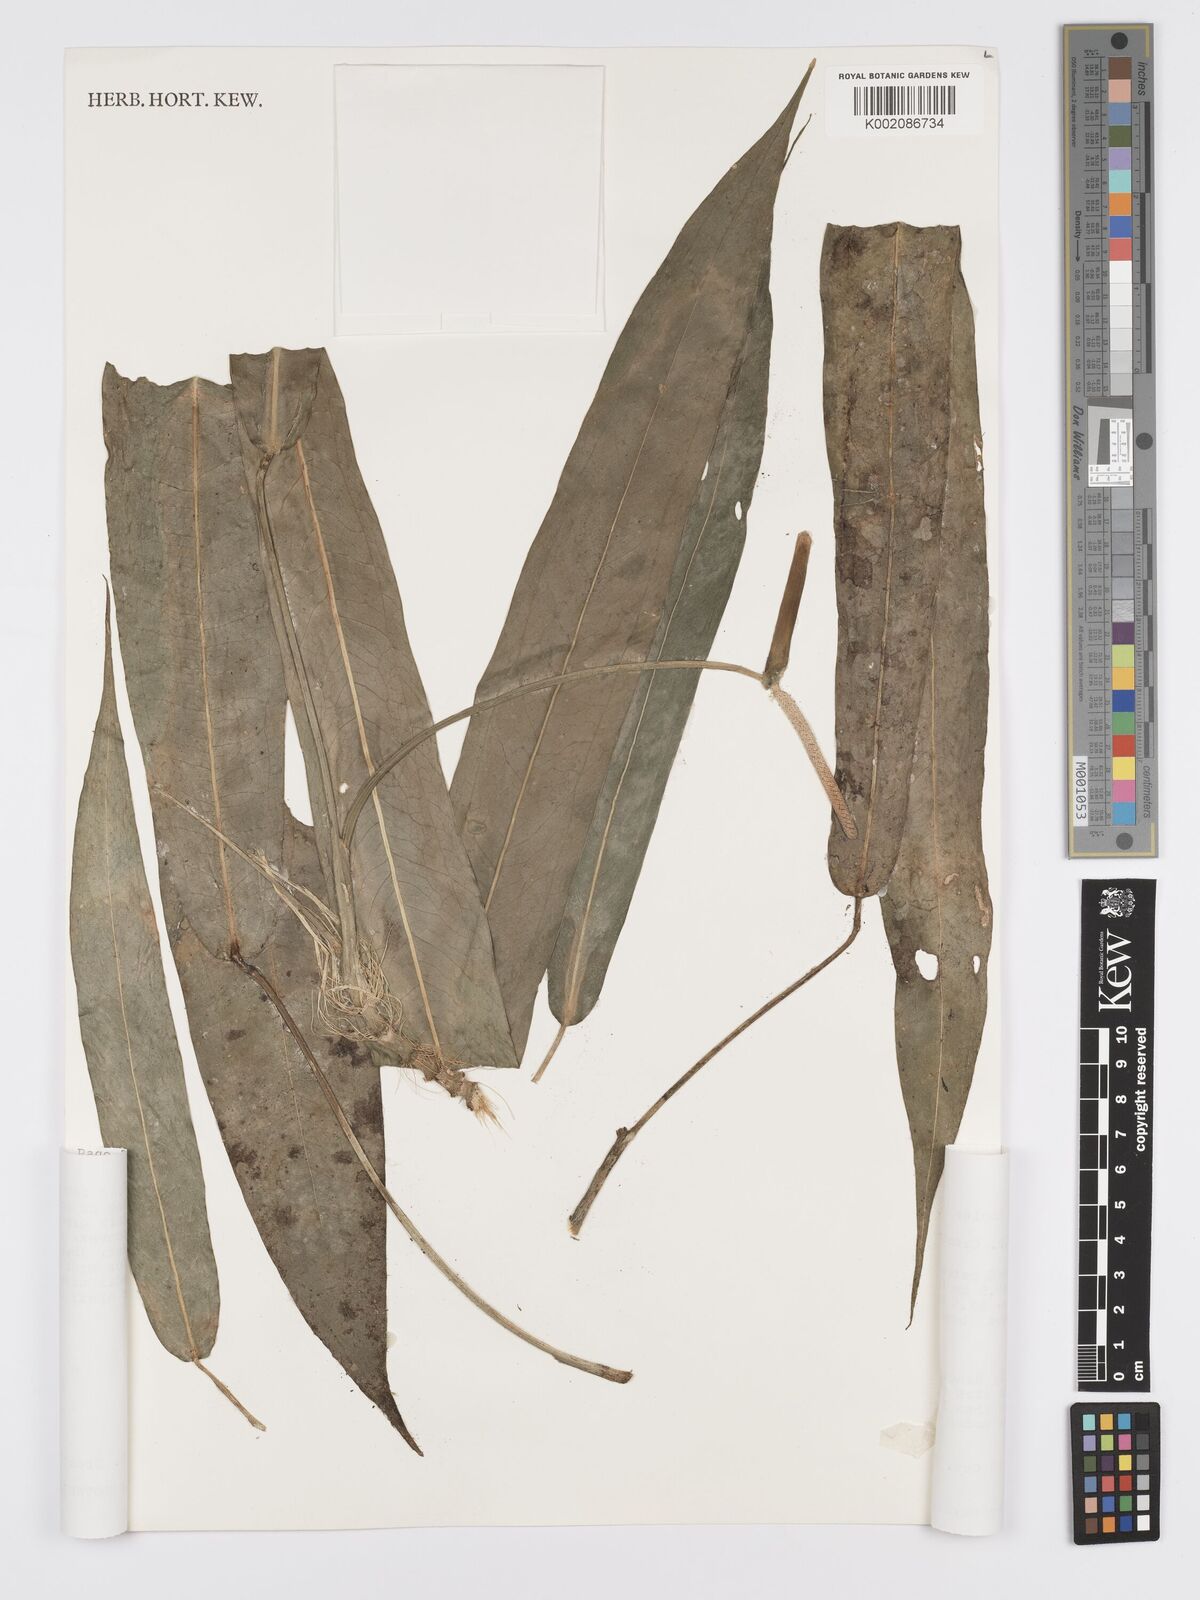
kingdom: Plantae
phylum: Tracheophyta
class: Liliopsida
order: Alismatales
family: Araceae
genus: Anthurium
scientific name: Anthurium pallidiflorum
